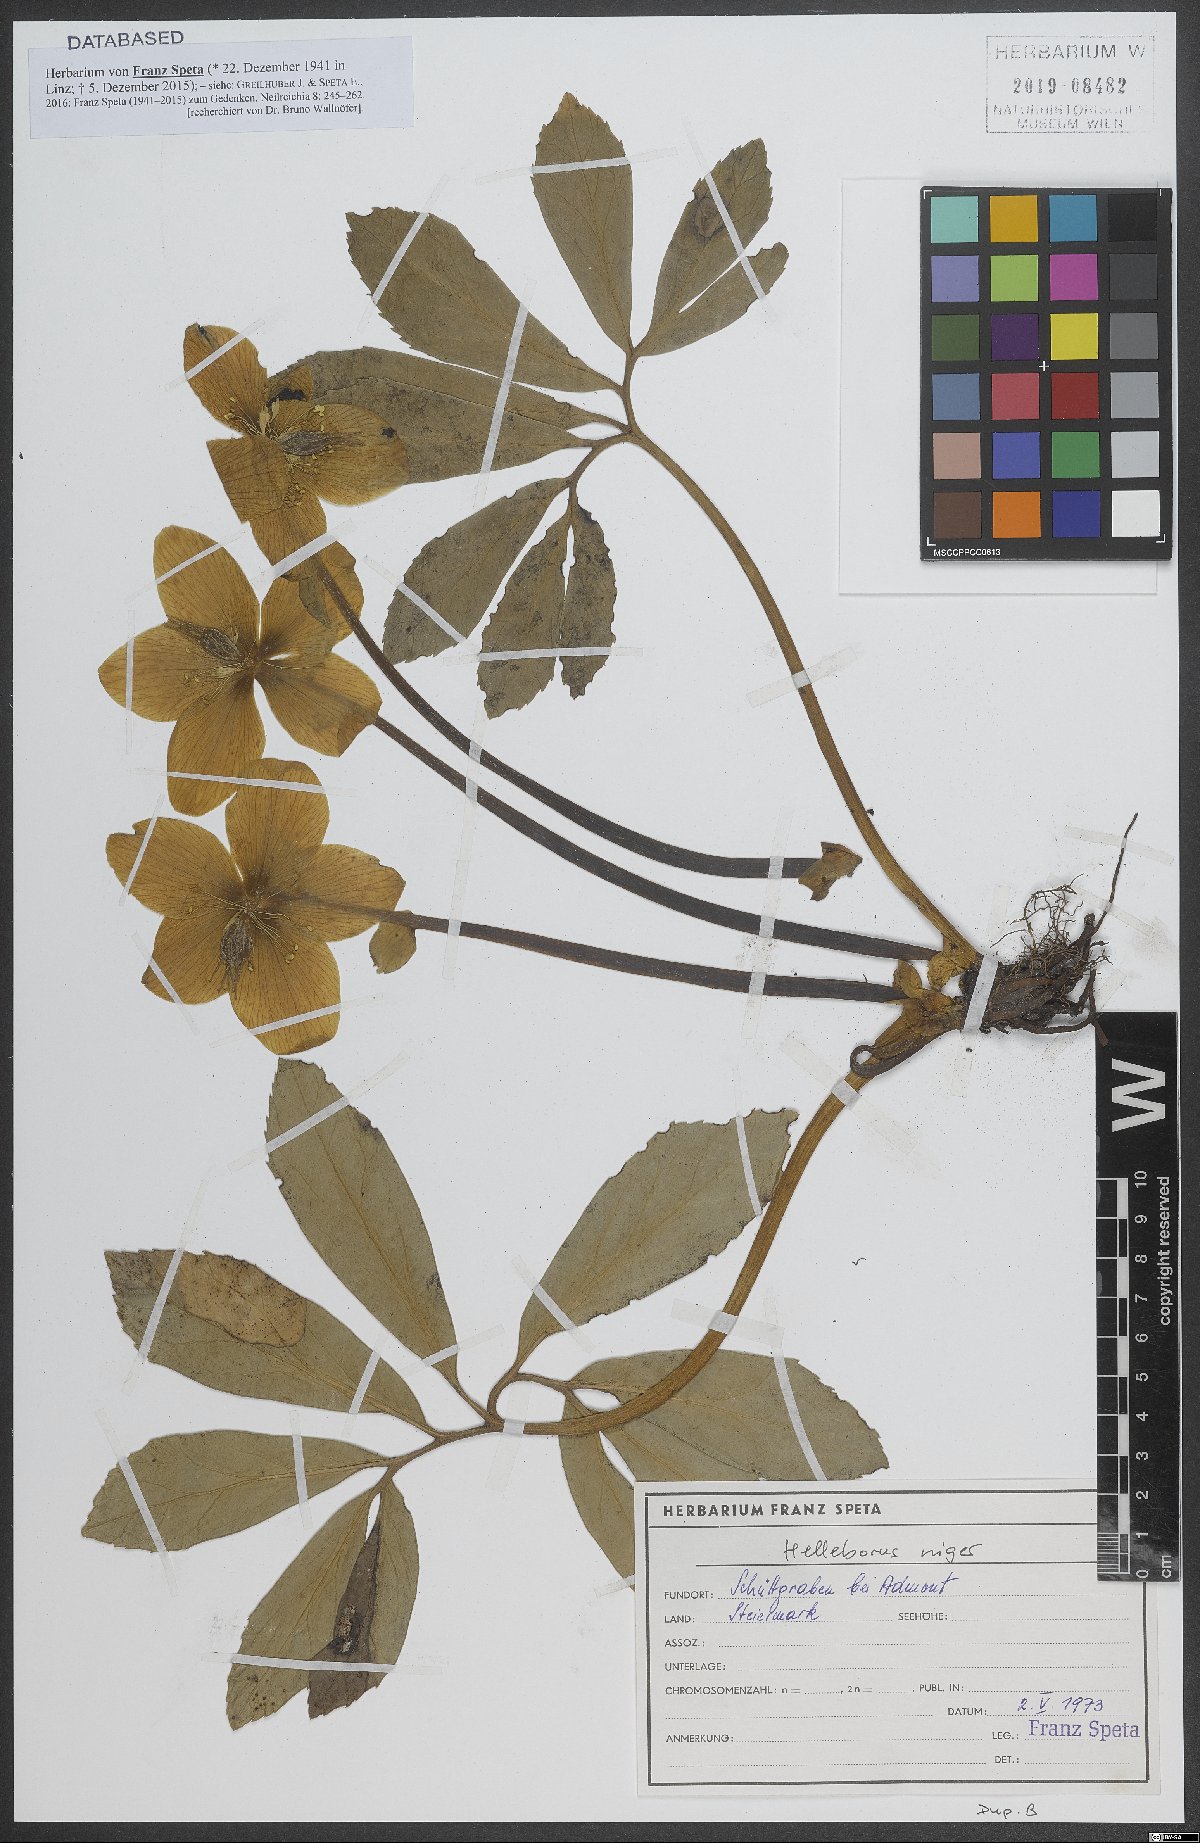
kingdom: Plantae
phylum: Tracheophyta
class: Magnoliopsida
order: Ranunculales
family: Ranunculaceae
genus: Helleborus
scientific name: Helleborus niger
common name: Black hellebore
